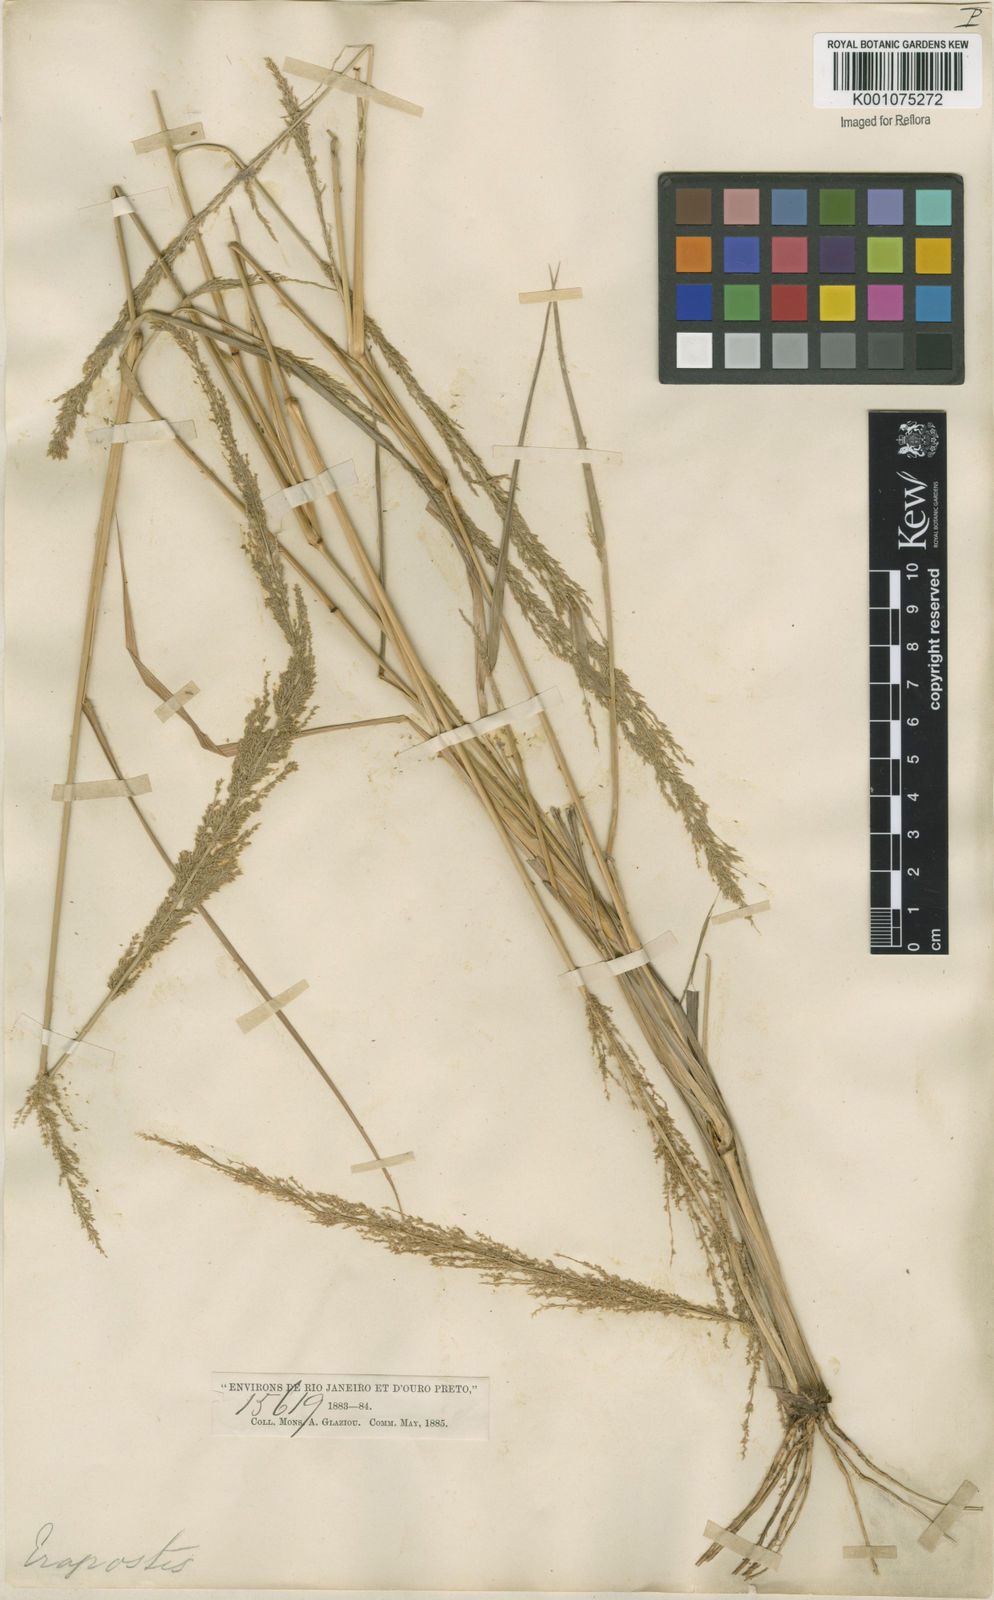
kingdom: Plantae
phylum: Tracheophyta
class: Liliopsida
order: Poales
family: Poaceae
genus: Eragrostis
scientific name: Eragrostis japonica
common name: Pond lovegrass
